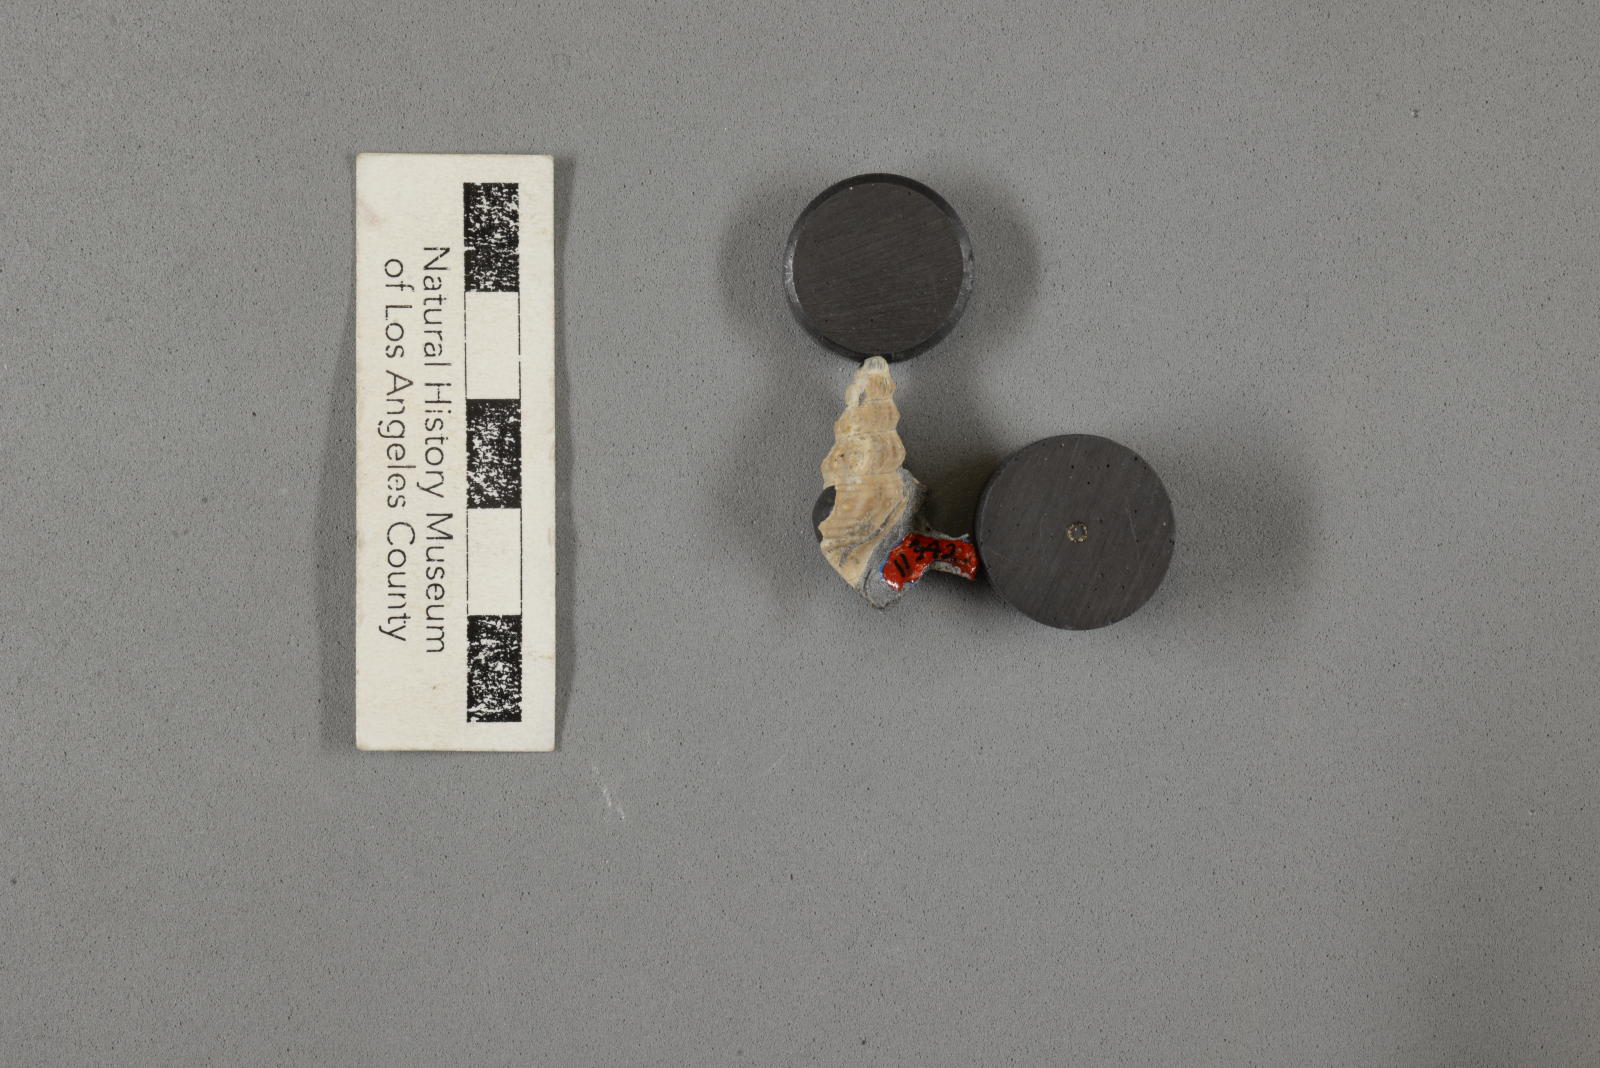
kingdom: Animalia
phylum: Mollusca
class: Gastropoda
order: Littorinimorpha
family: Aporrhaidae
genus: Helicaulax
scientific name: Helicaulax Anchura popenoei
